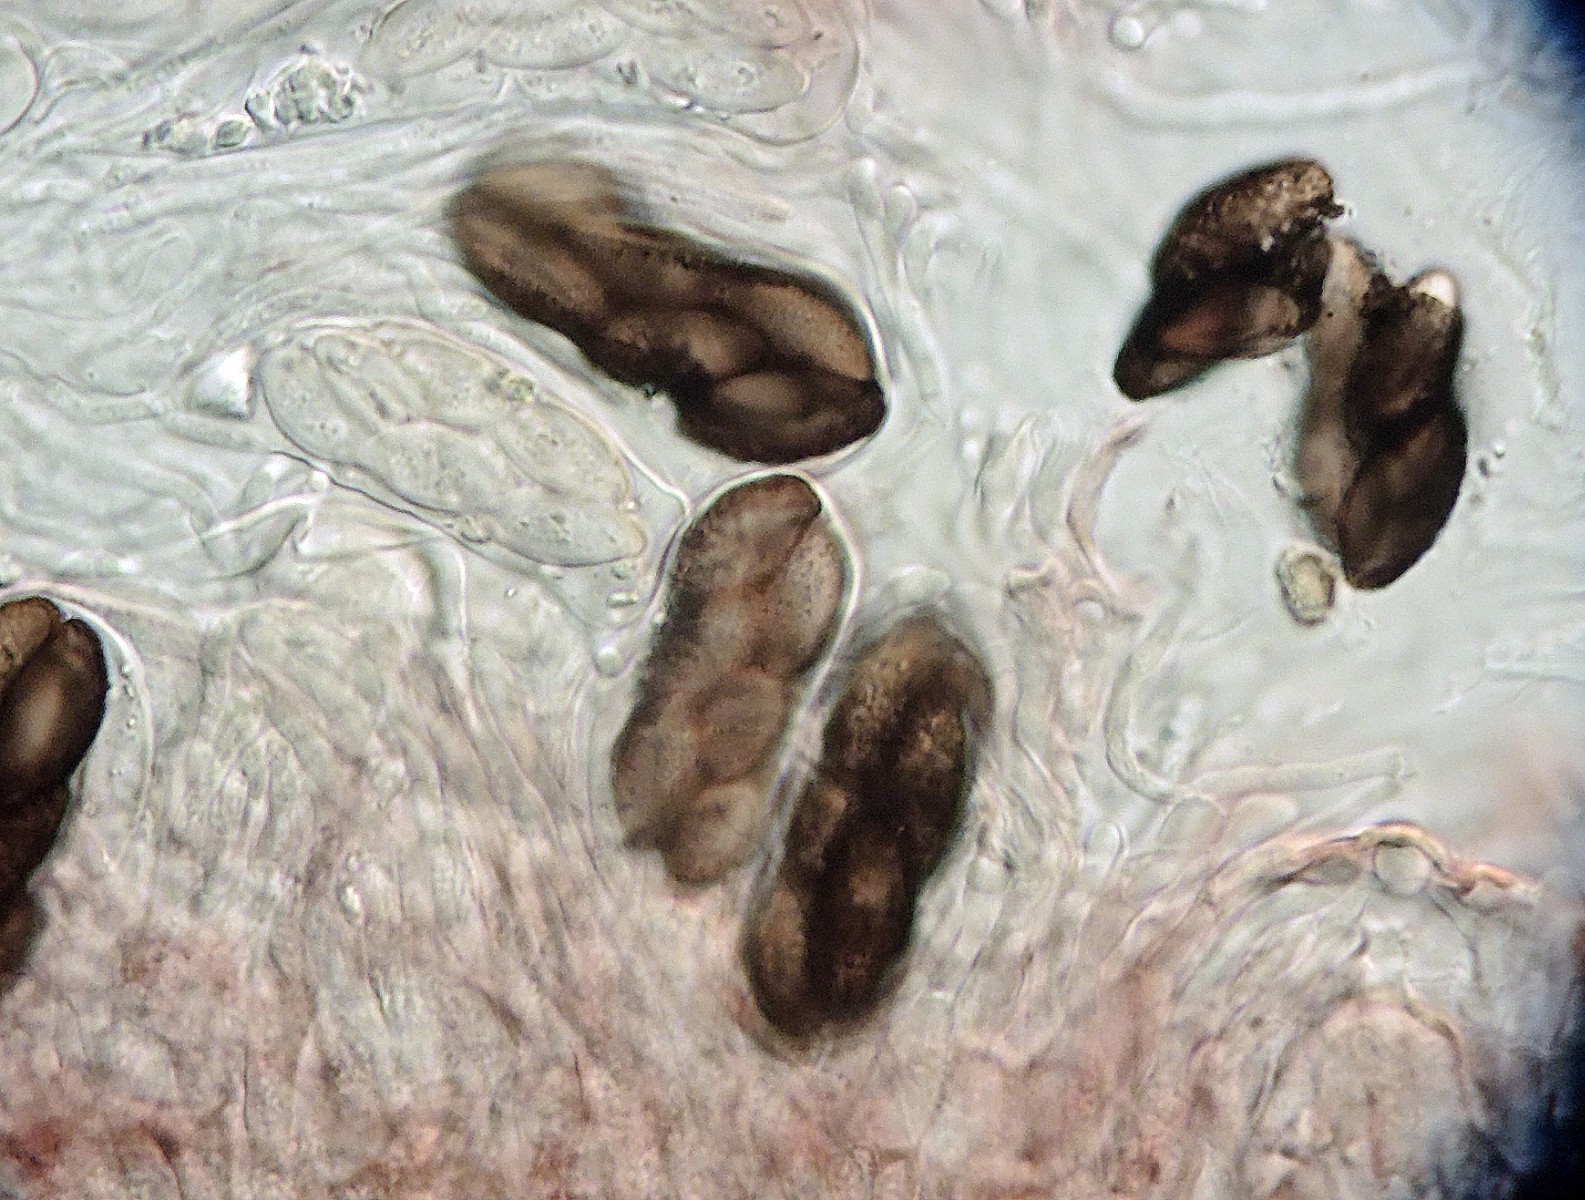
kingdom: Fungi
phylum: Ascomycota
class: Pezizomycetes
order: Pezizales
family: Ascobolaceae
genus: Saccobolus
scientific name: Saccobolus caesariatus
